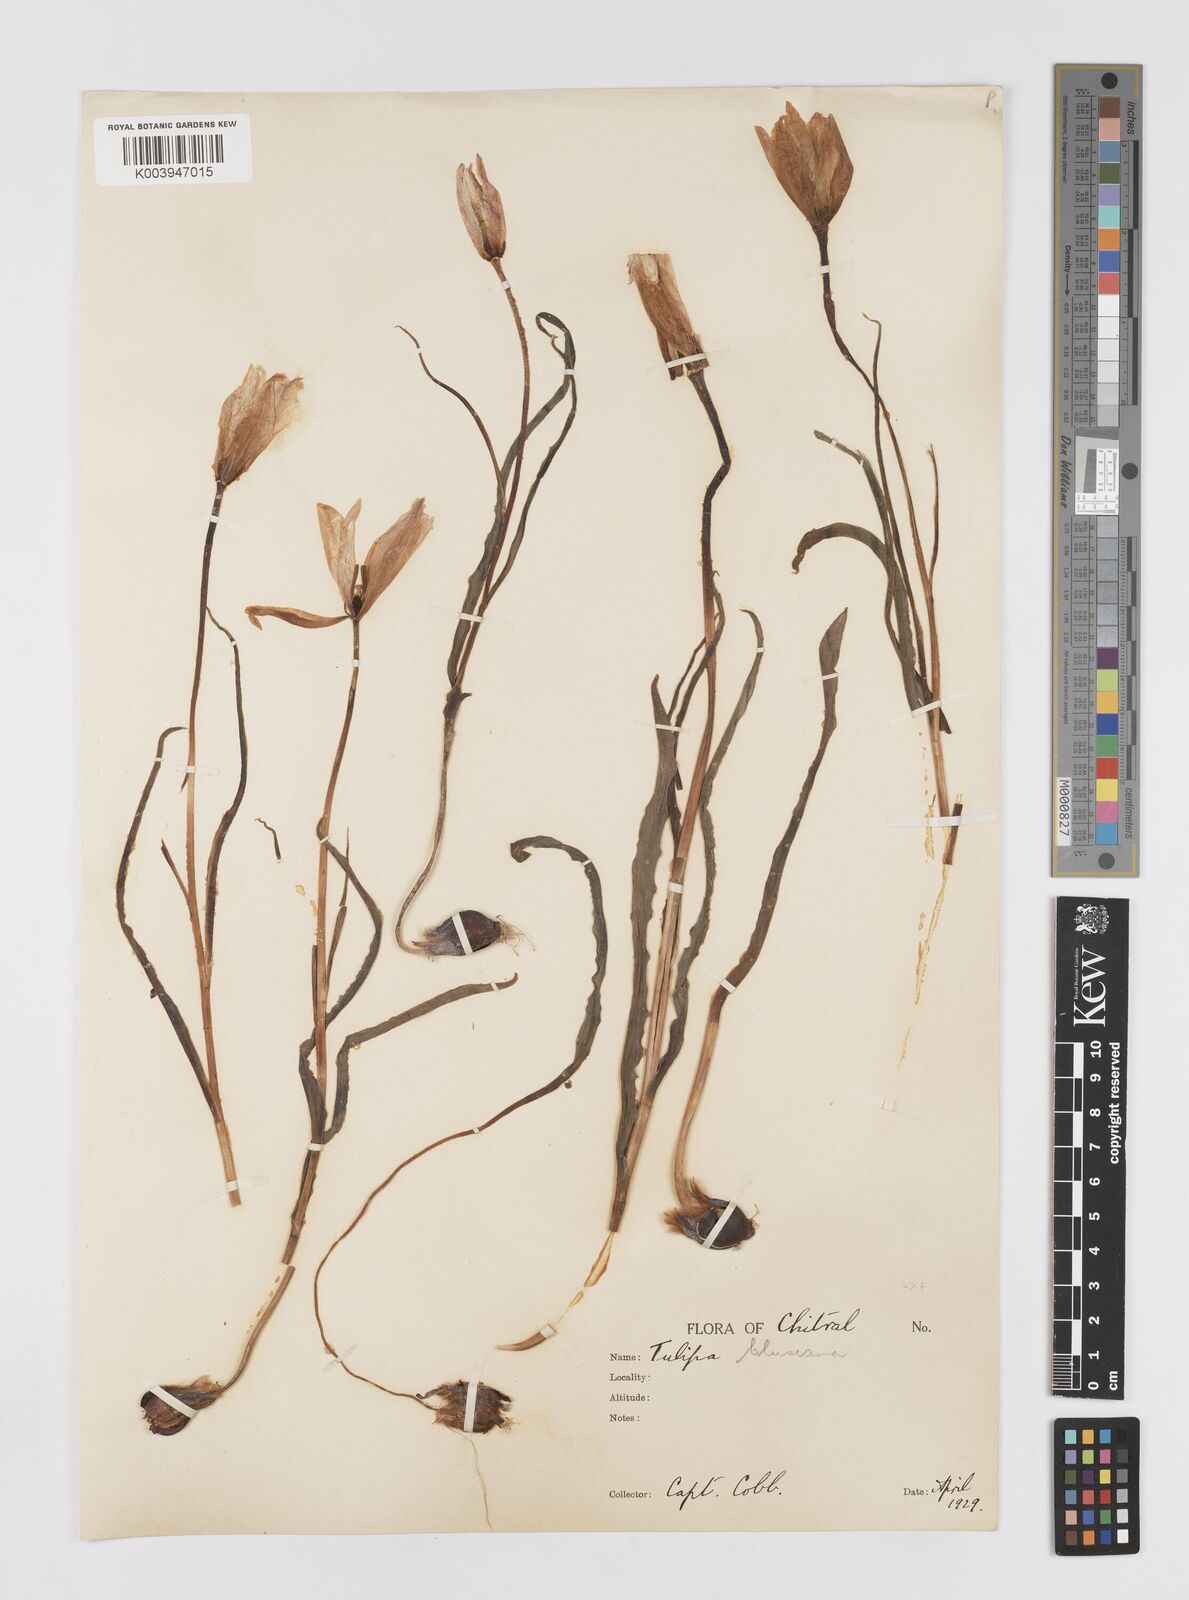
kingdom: Plantae
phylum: Tracheophyta
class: Liliopsida
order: Liliales
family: Liliaceae
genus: Tulipa
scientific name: Tulipa clusiana
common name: Lady tulip
